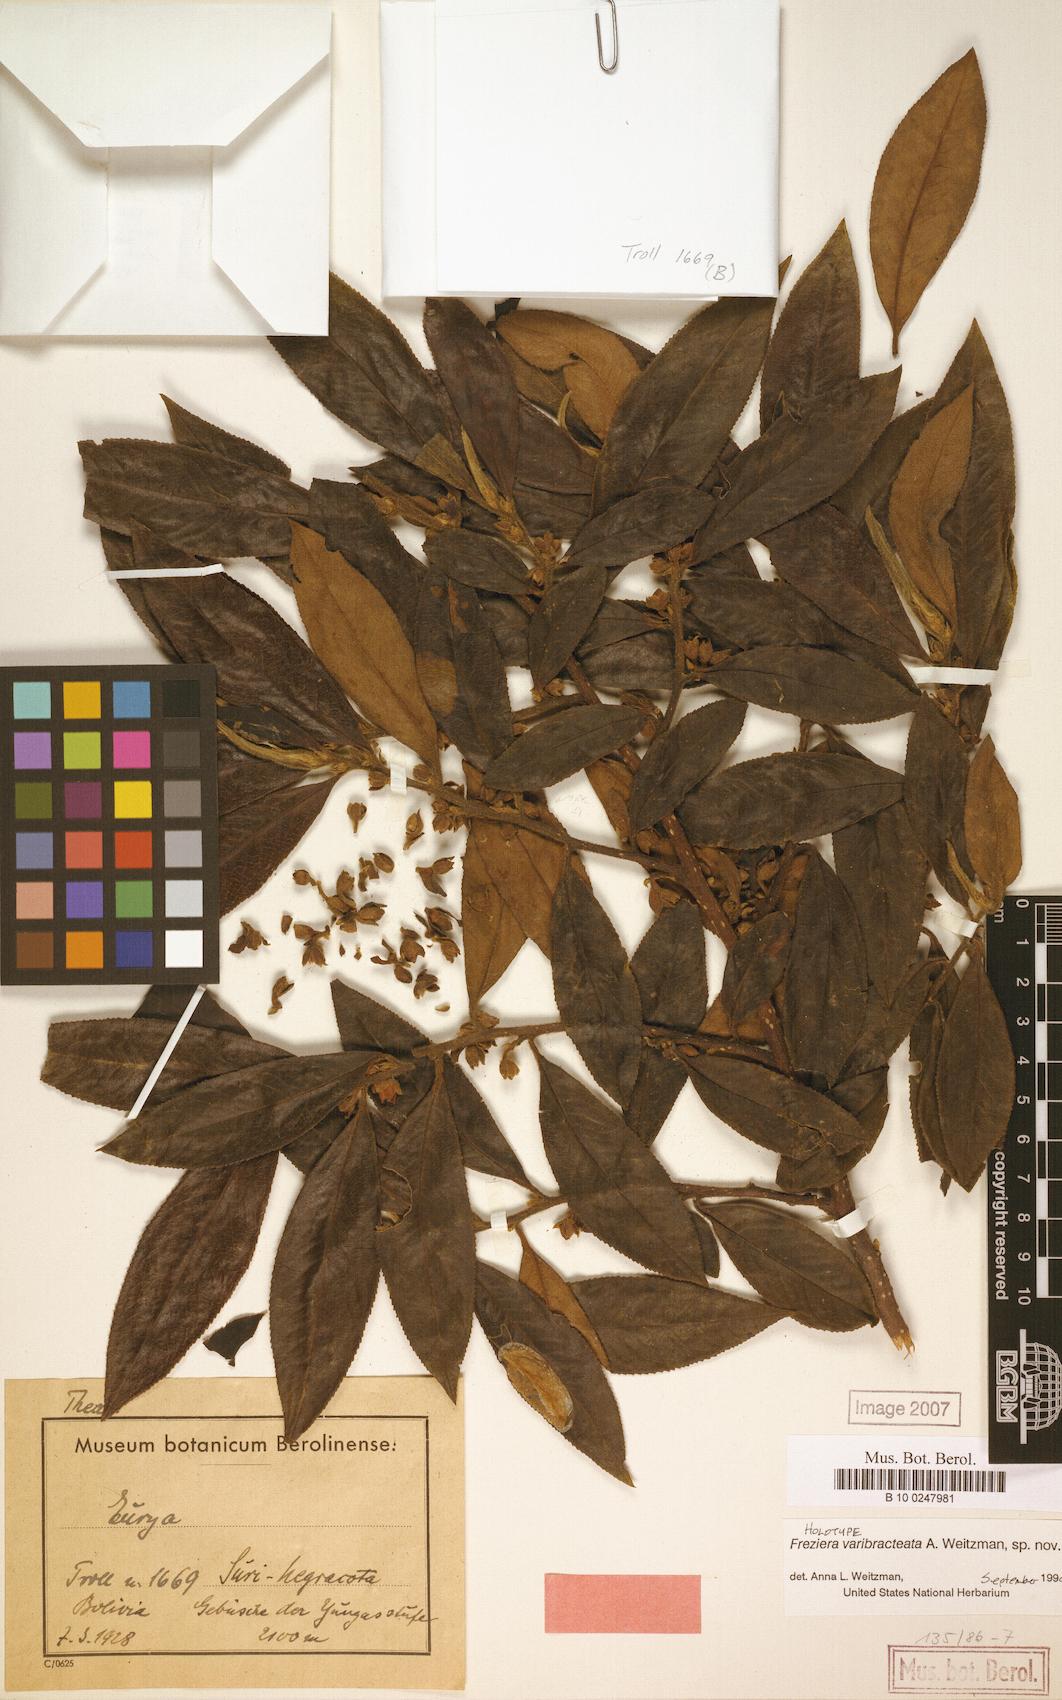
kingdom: Plantae
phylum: Tracheophyta
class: Magnoliopsida
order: Ericales
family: Pentaphylacaceae
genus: Freziera
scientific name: Freziera trollii
